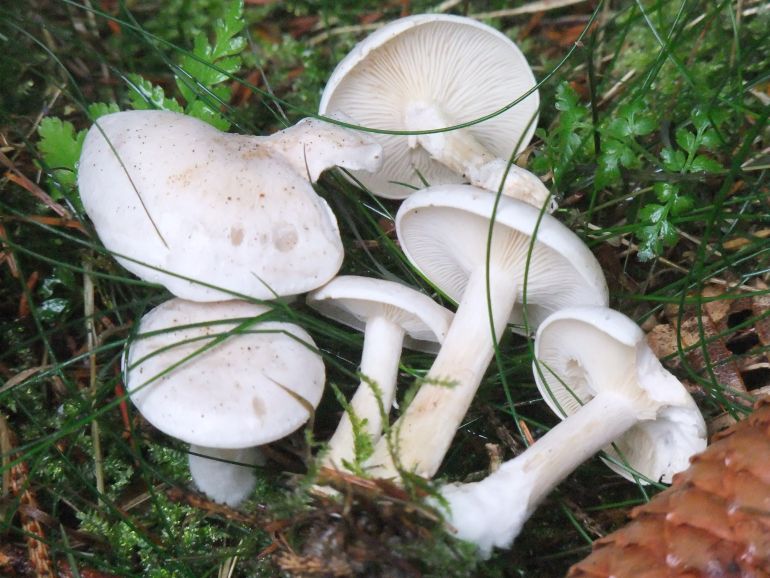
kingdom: Fungi
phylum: Basidiomycota
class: Agaricomycetes
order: Agaricales
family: Omphalotaceae
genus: Rhodocollybia
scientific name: Rhodocollybia maculata
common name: plettet fladhat
